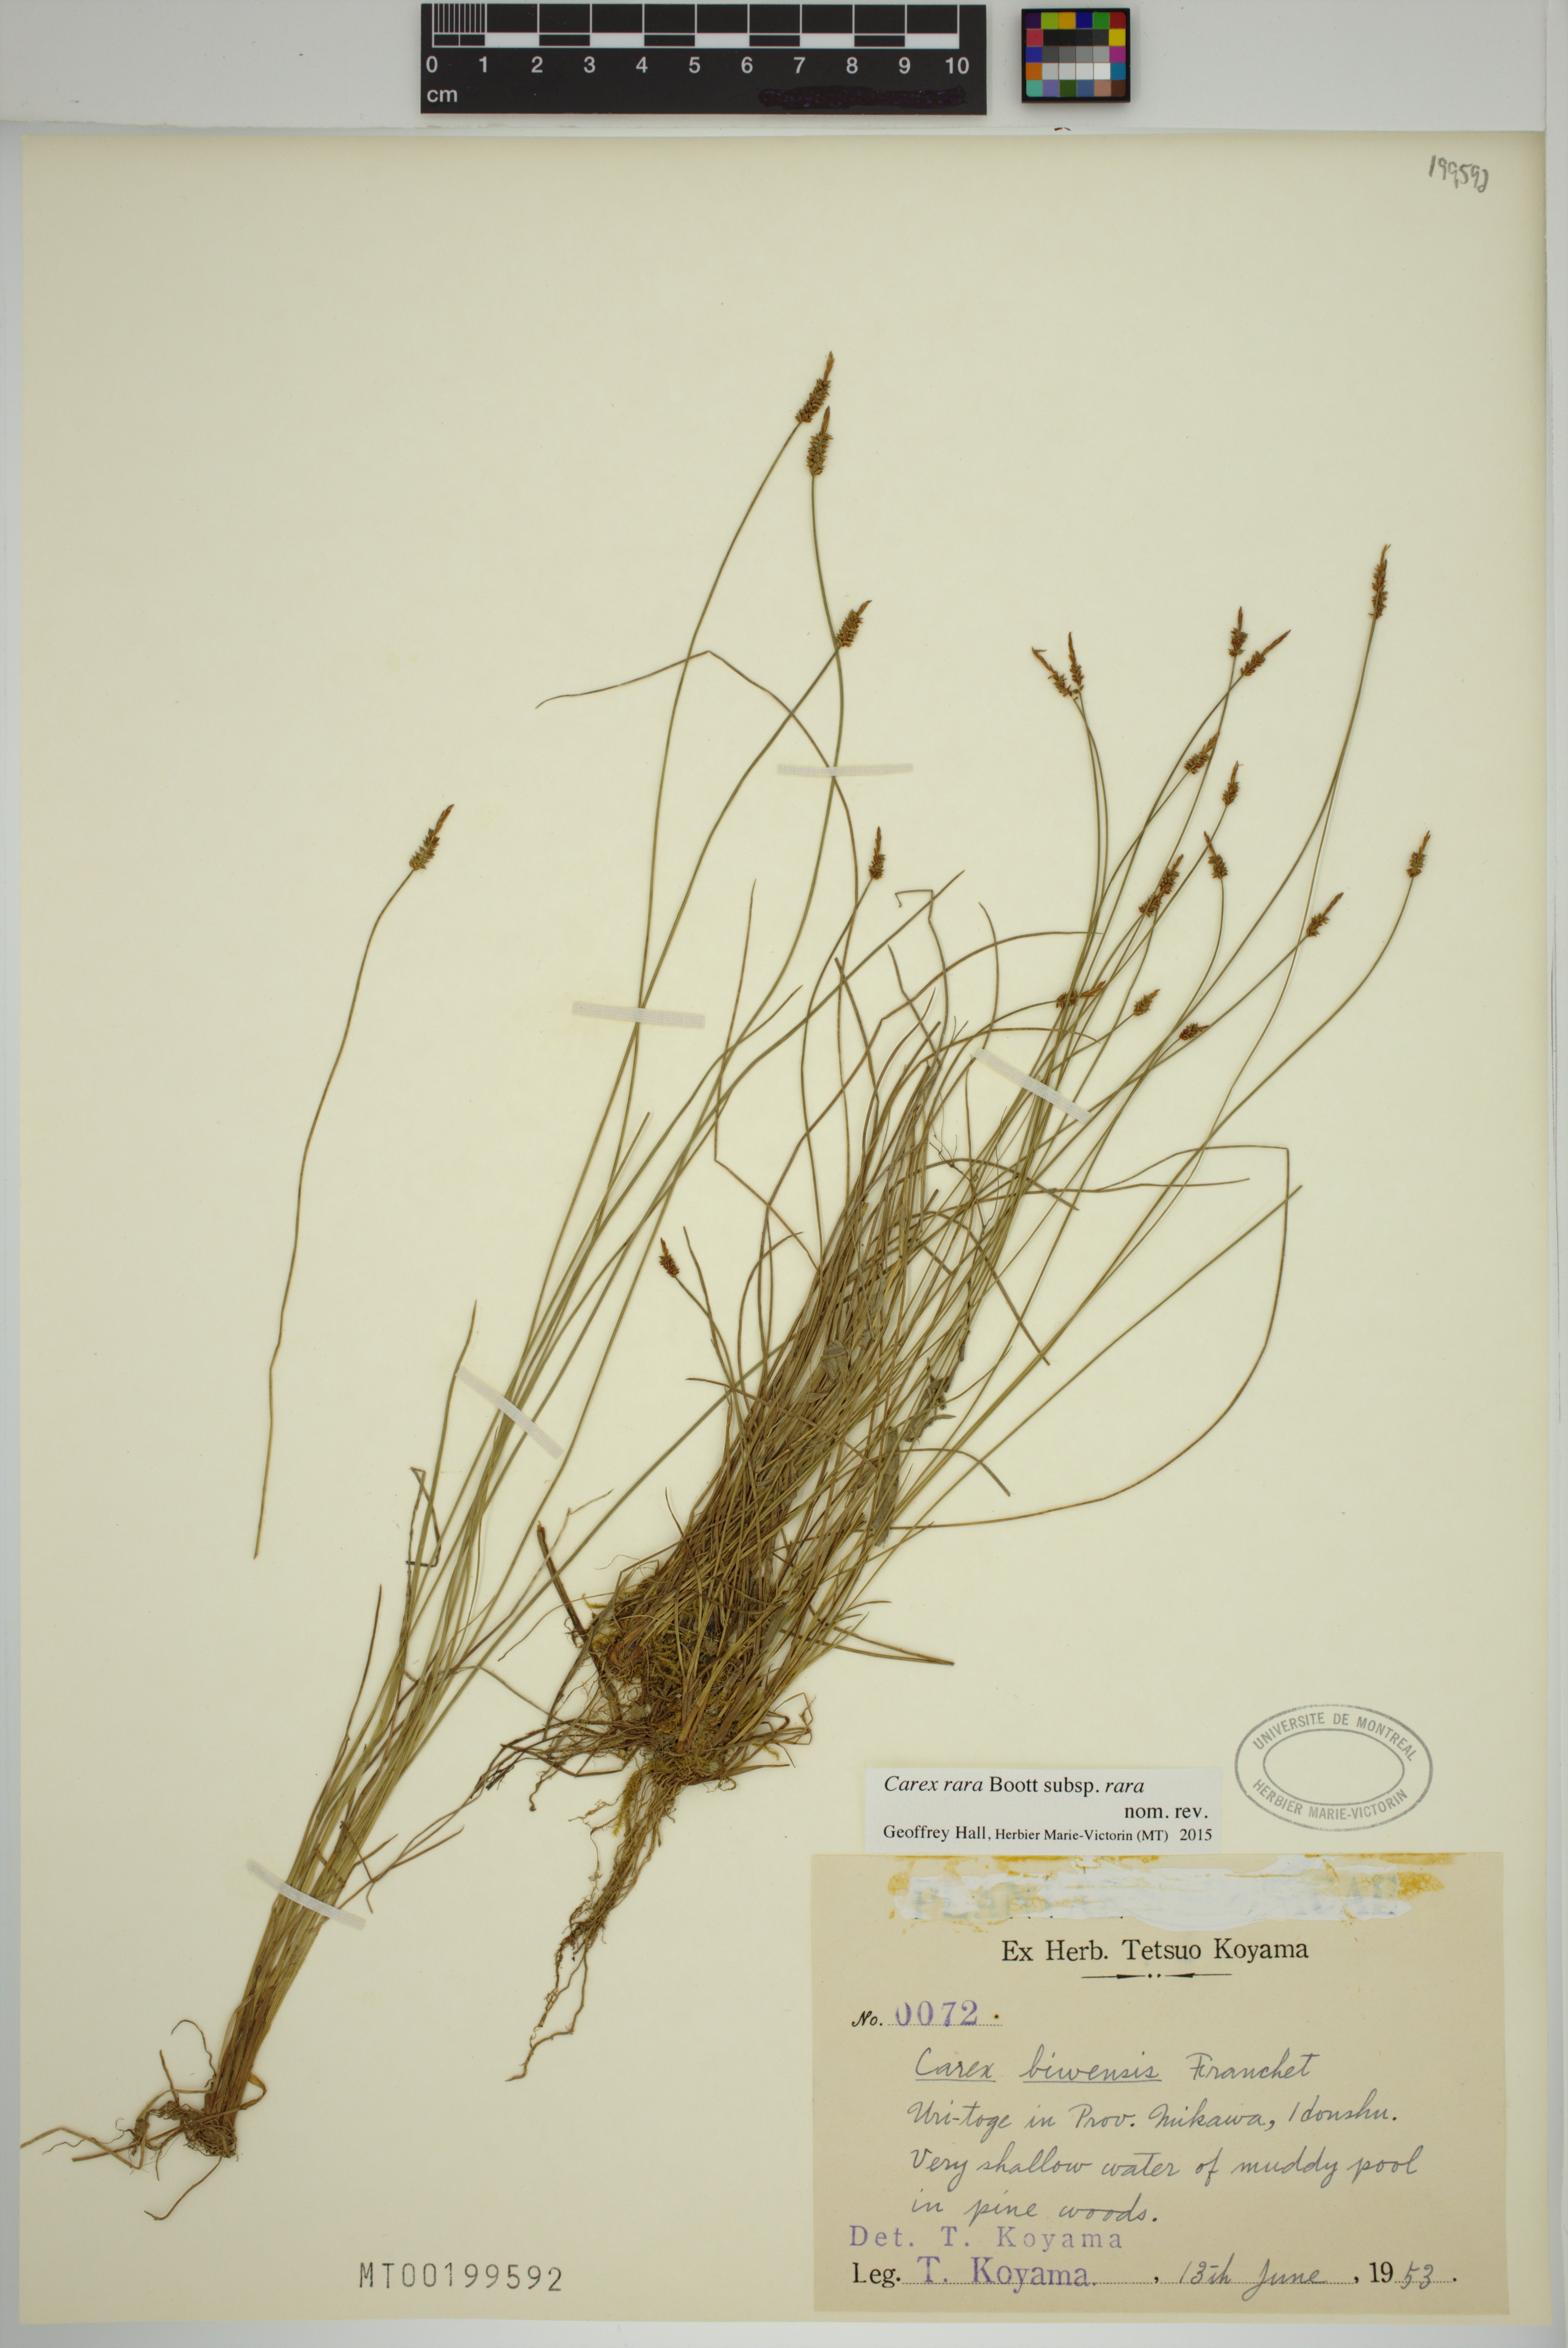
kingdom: Plantae
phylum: Tracheophyta
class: Liliopsida
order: Poales
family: Cyperaceae
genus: Carex
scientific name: Carex rara
